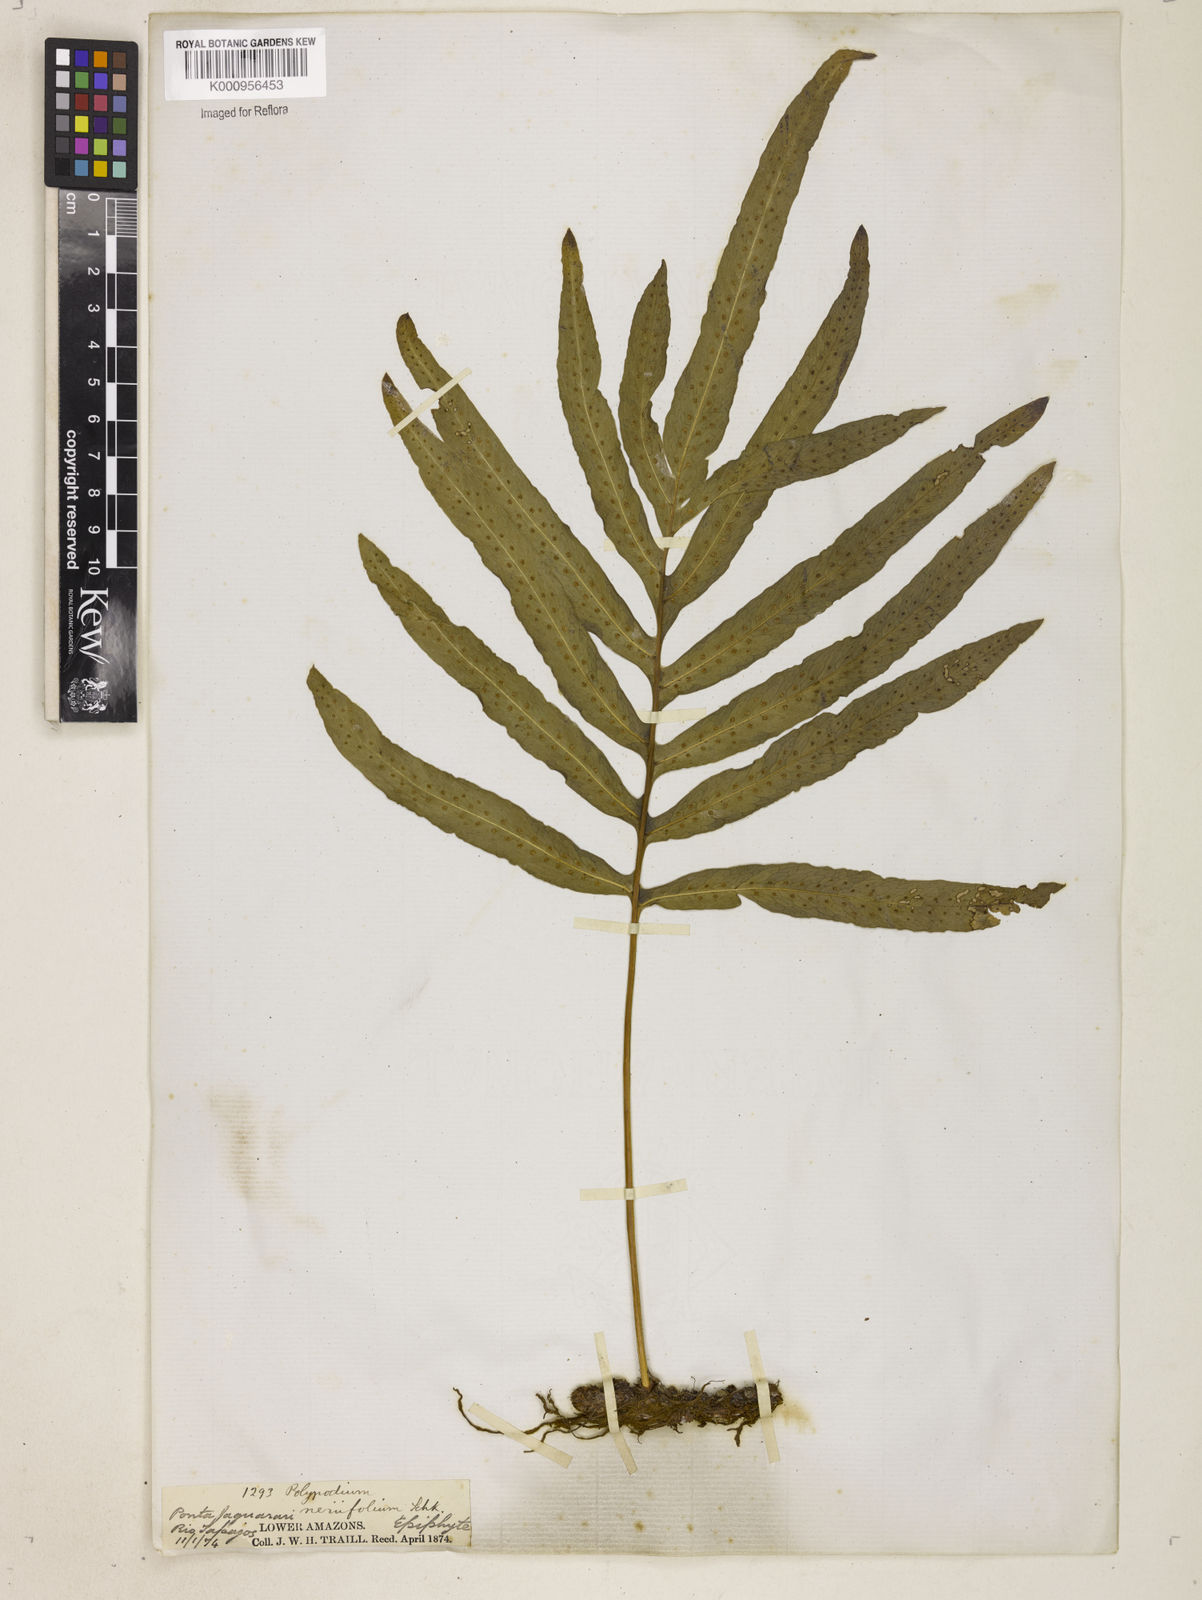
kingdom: Plantae
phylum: Tracheophyta
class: Polypodiopsida
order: Polypodiales
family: Polypodiaceae
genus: Polypodium
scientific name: Polypodium
